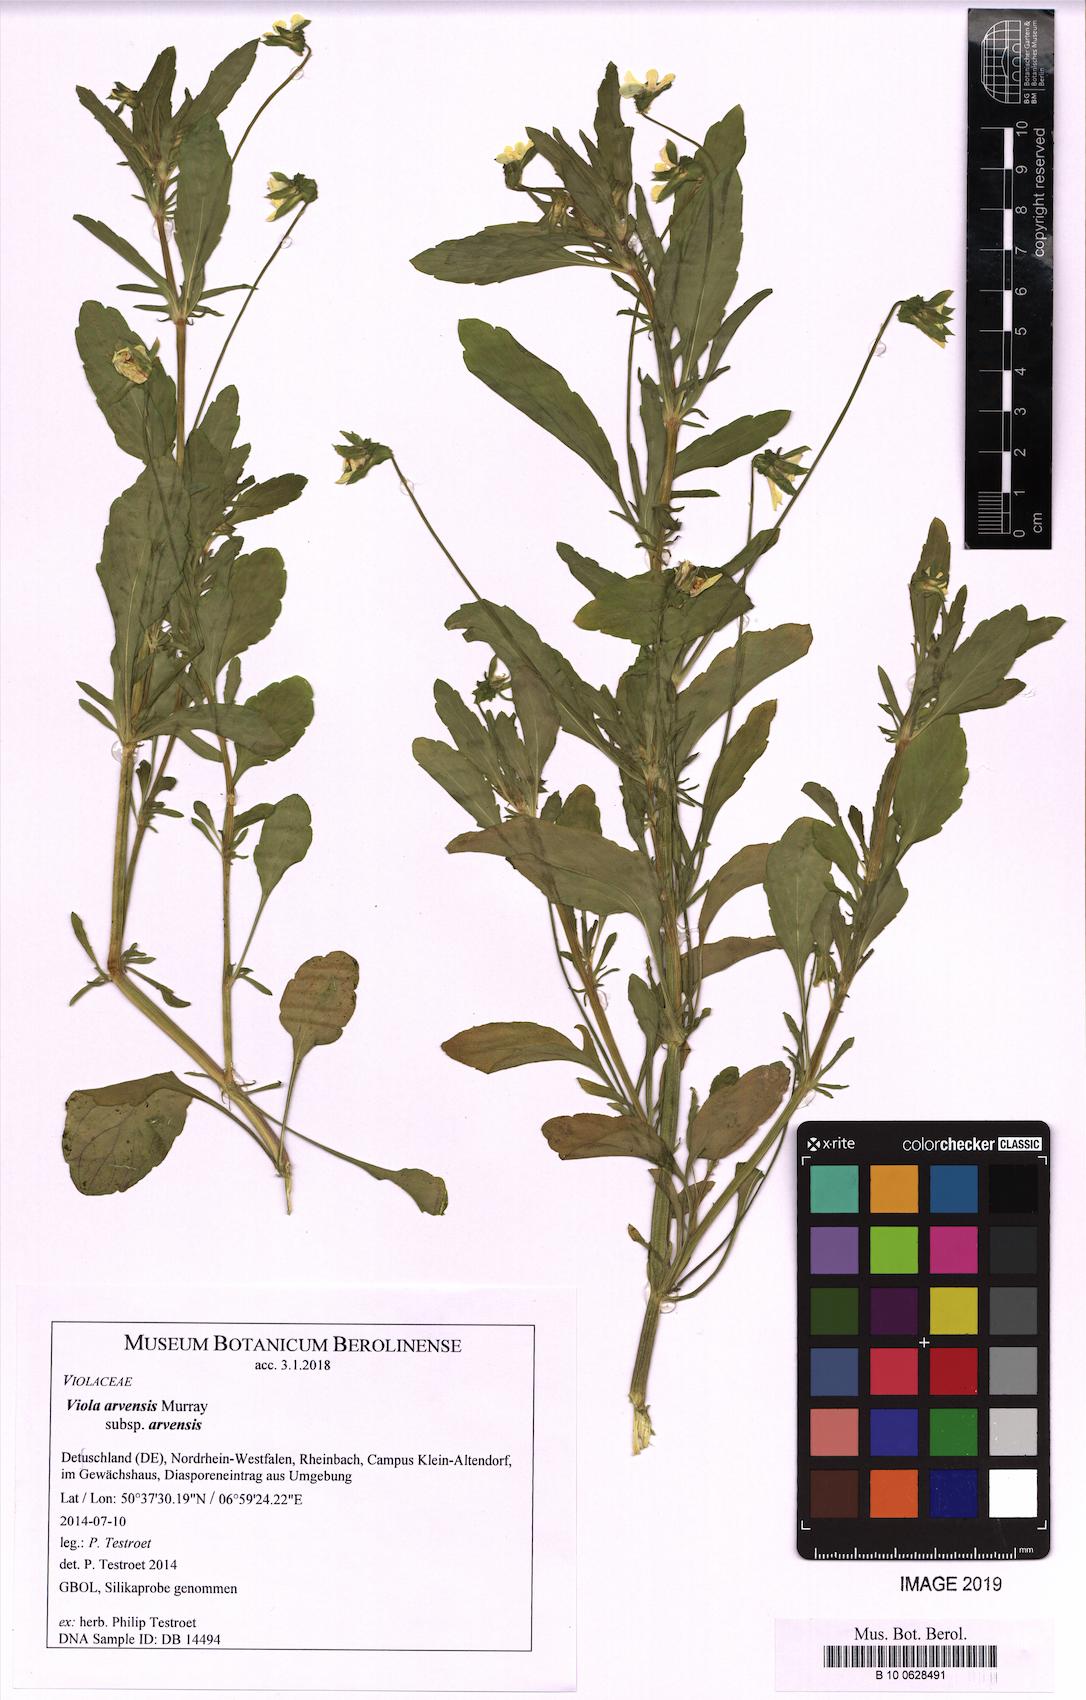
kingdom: Plantae
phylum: Tracheophyta
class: Magnoliopsida
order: Malpighiales
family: Violaceae
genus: Viola
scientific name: Viola arvensis
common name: Field pansy
